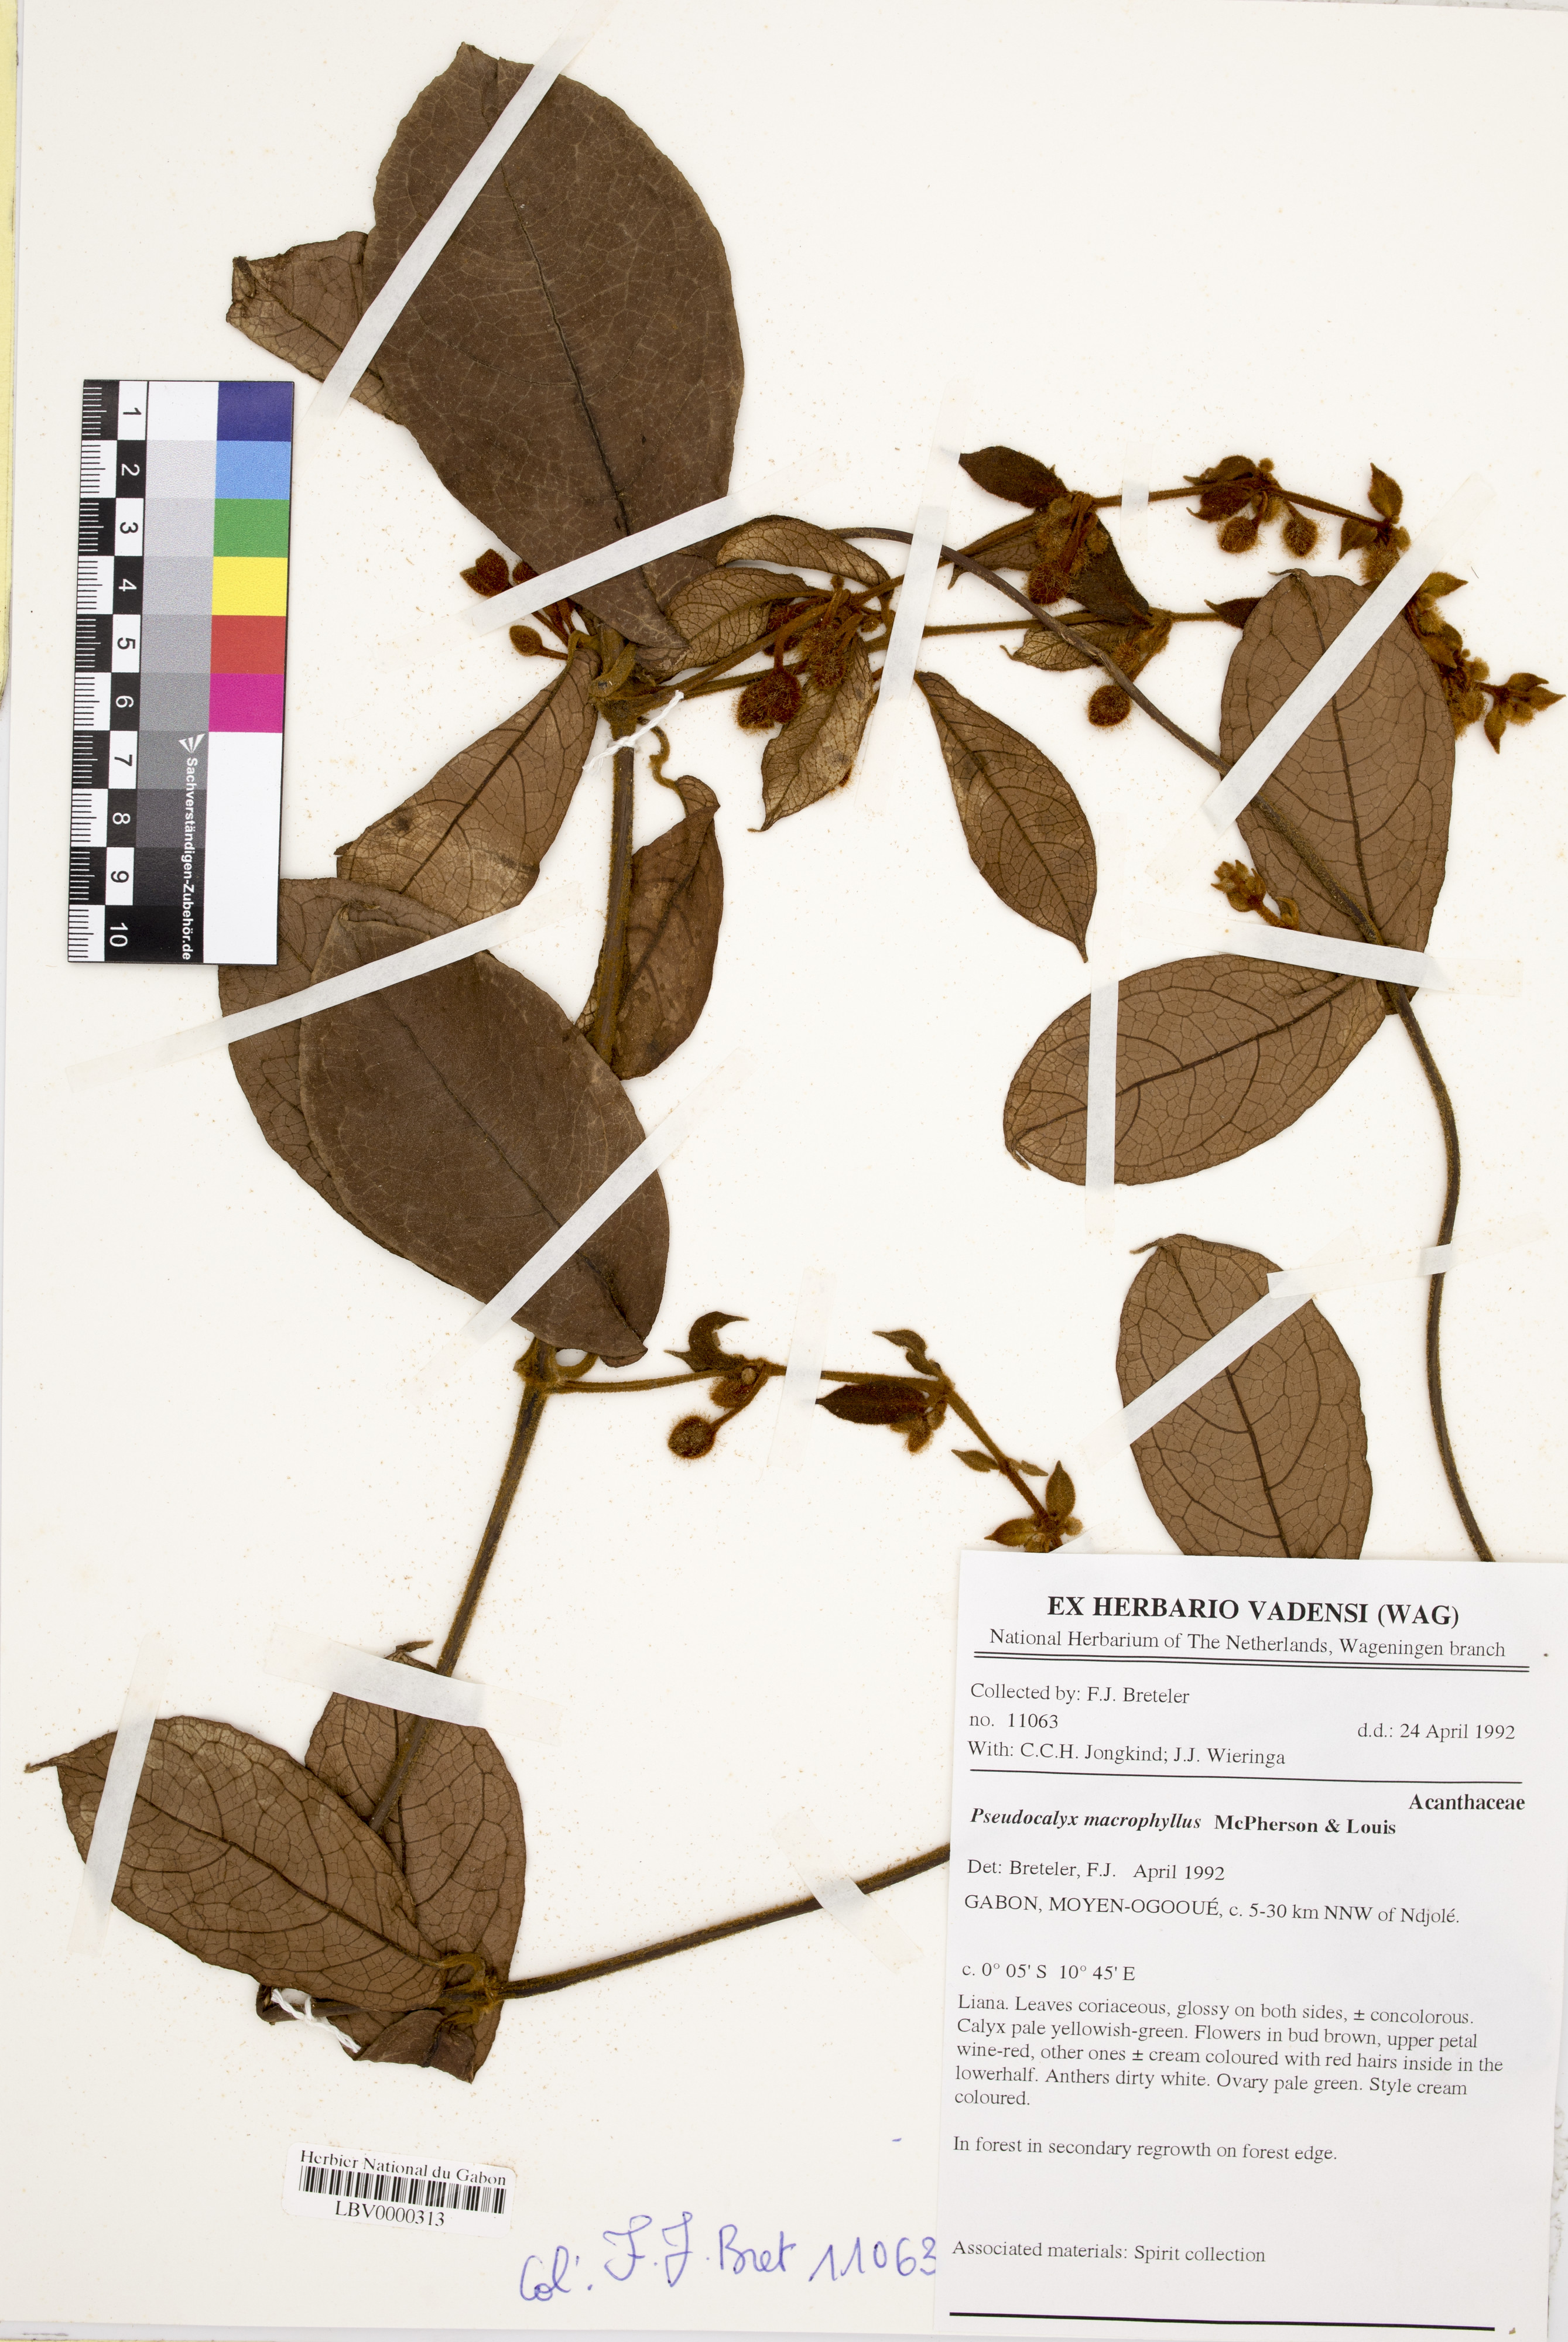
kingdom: Plantae
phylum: Tracheophyta
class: Magnoliopsida
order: Lamiales
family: Acanthaceae
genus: Pseudocalyx
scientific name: Pseudocalyx macrophyllus
